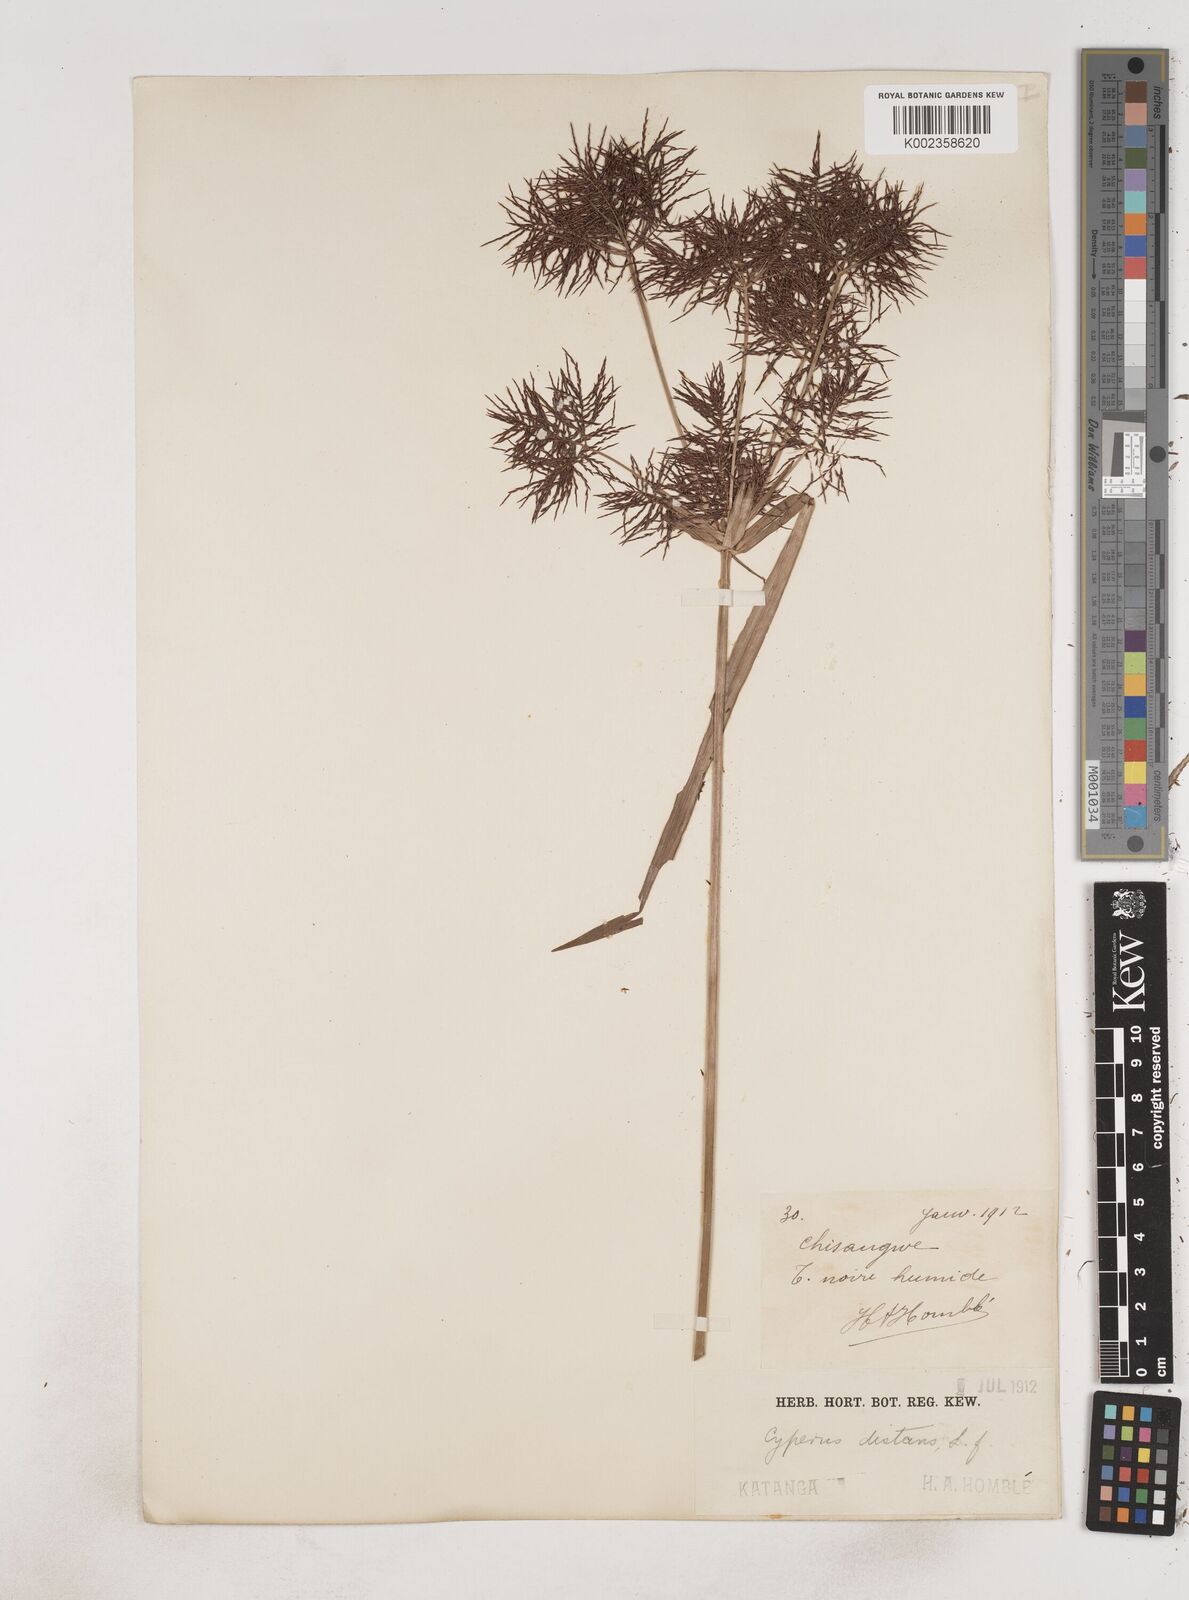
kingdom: Plantae
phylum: Tracheophyta
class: Liliopsida
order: Poales
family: Cyperaceae
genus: Cyperus
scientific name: Cyperus distans
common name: Slender cyperus
